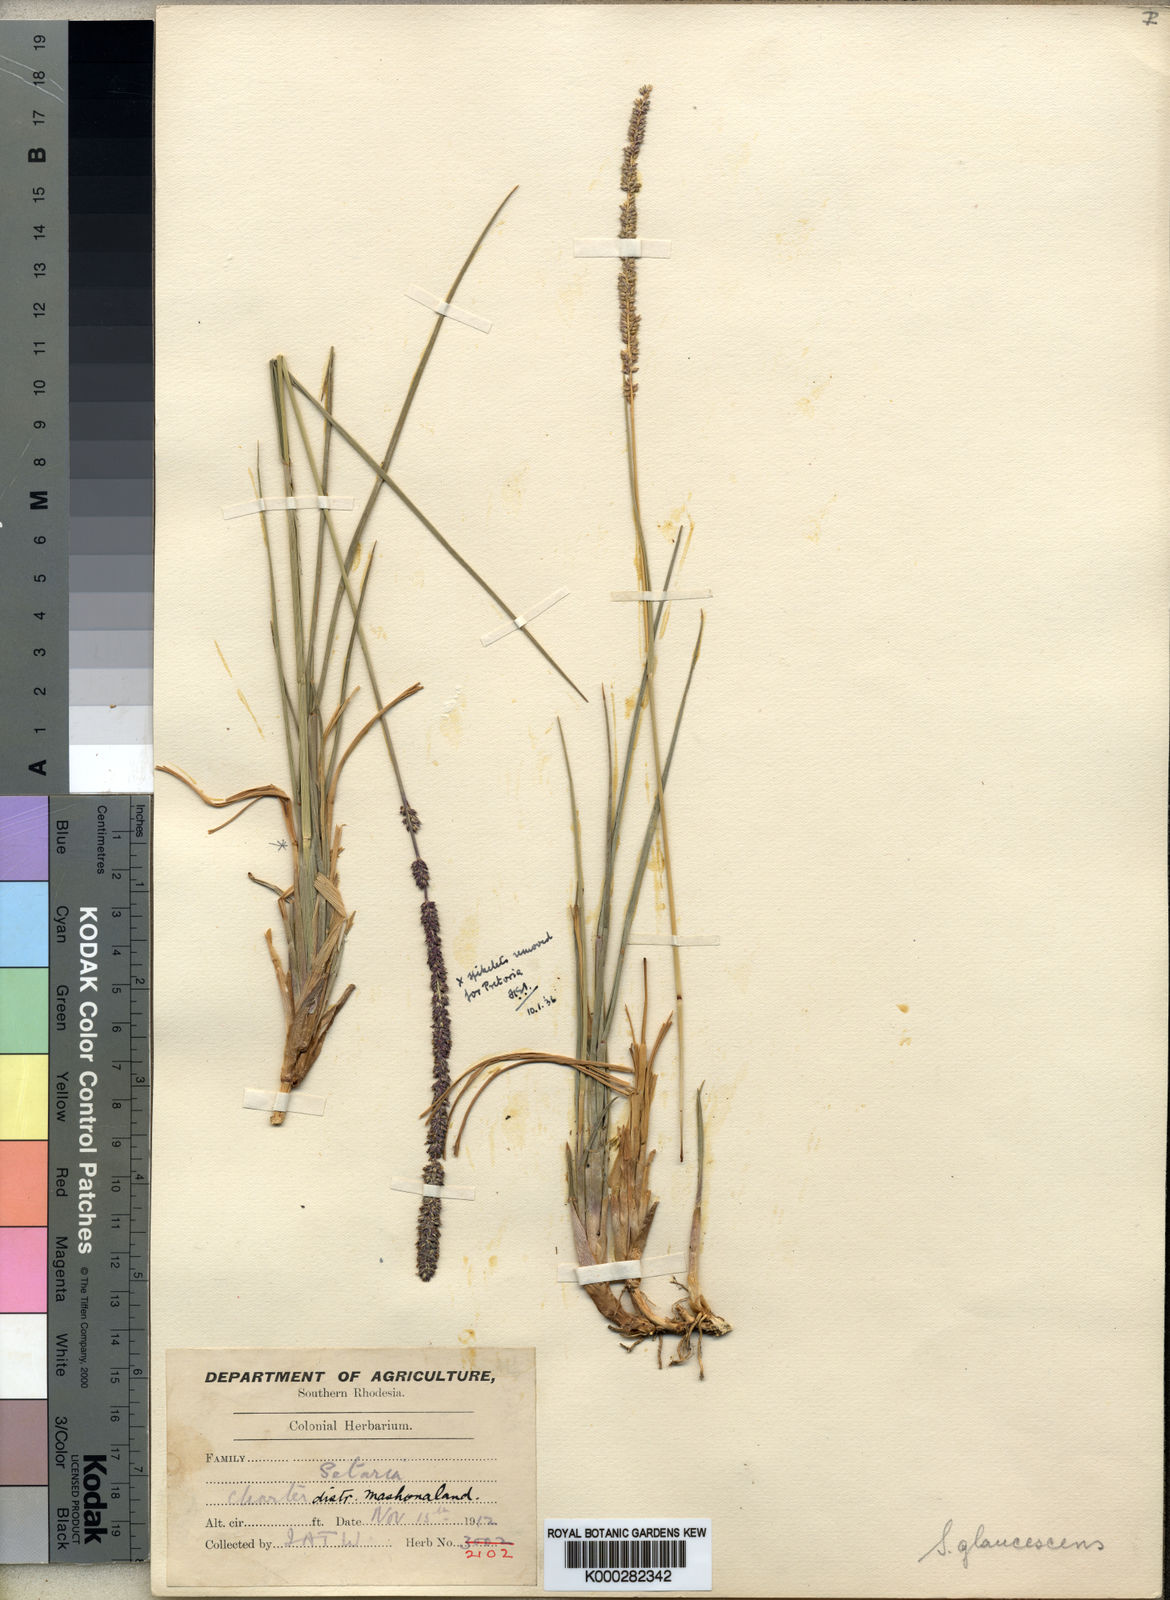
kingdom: Plantae
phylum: Tracheophyta
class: Liliopsida
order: Poales
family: Poaceae
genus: Sacciolepis
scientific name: Sacciolepis typhura
